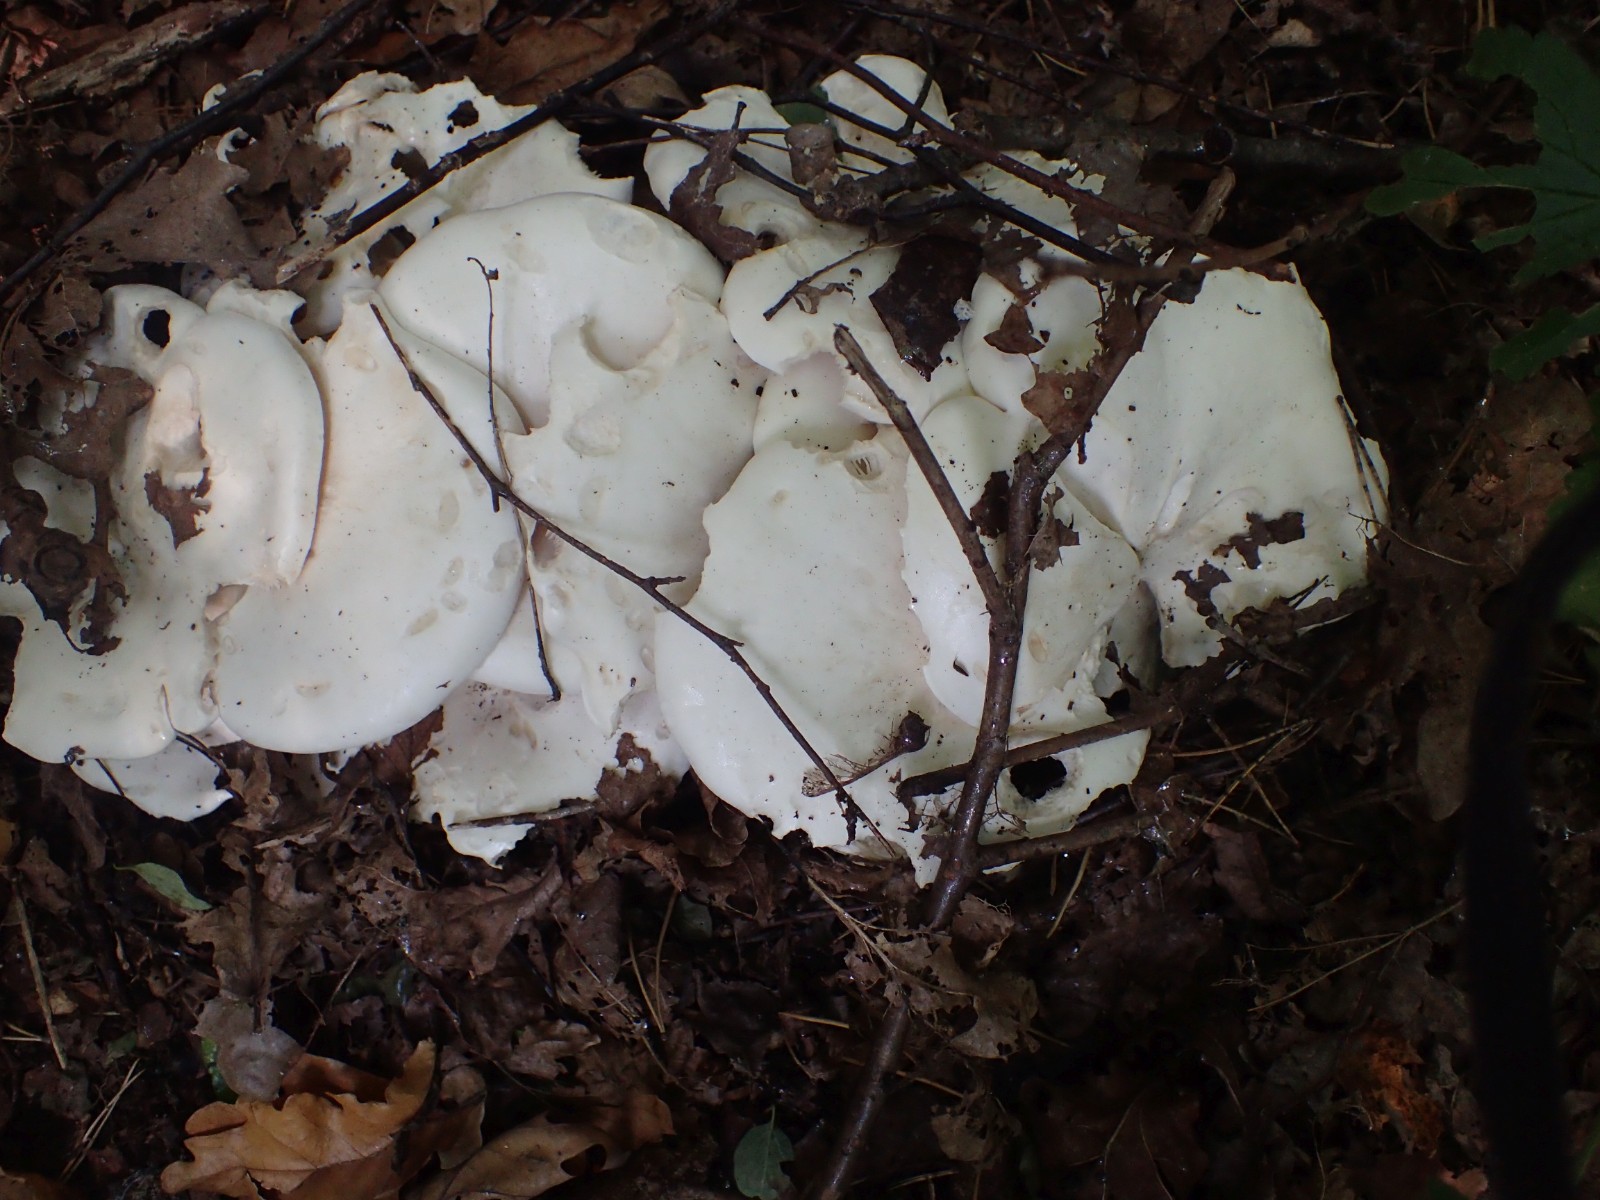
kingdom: Fungi
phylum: Basidiomycota
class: Agaricomycetes
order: Agaricales
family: Tricholomataceae
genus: Leucocybe
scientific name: Leucocybe connata
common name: knippe-tragthat
